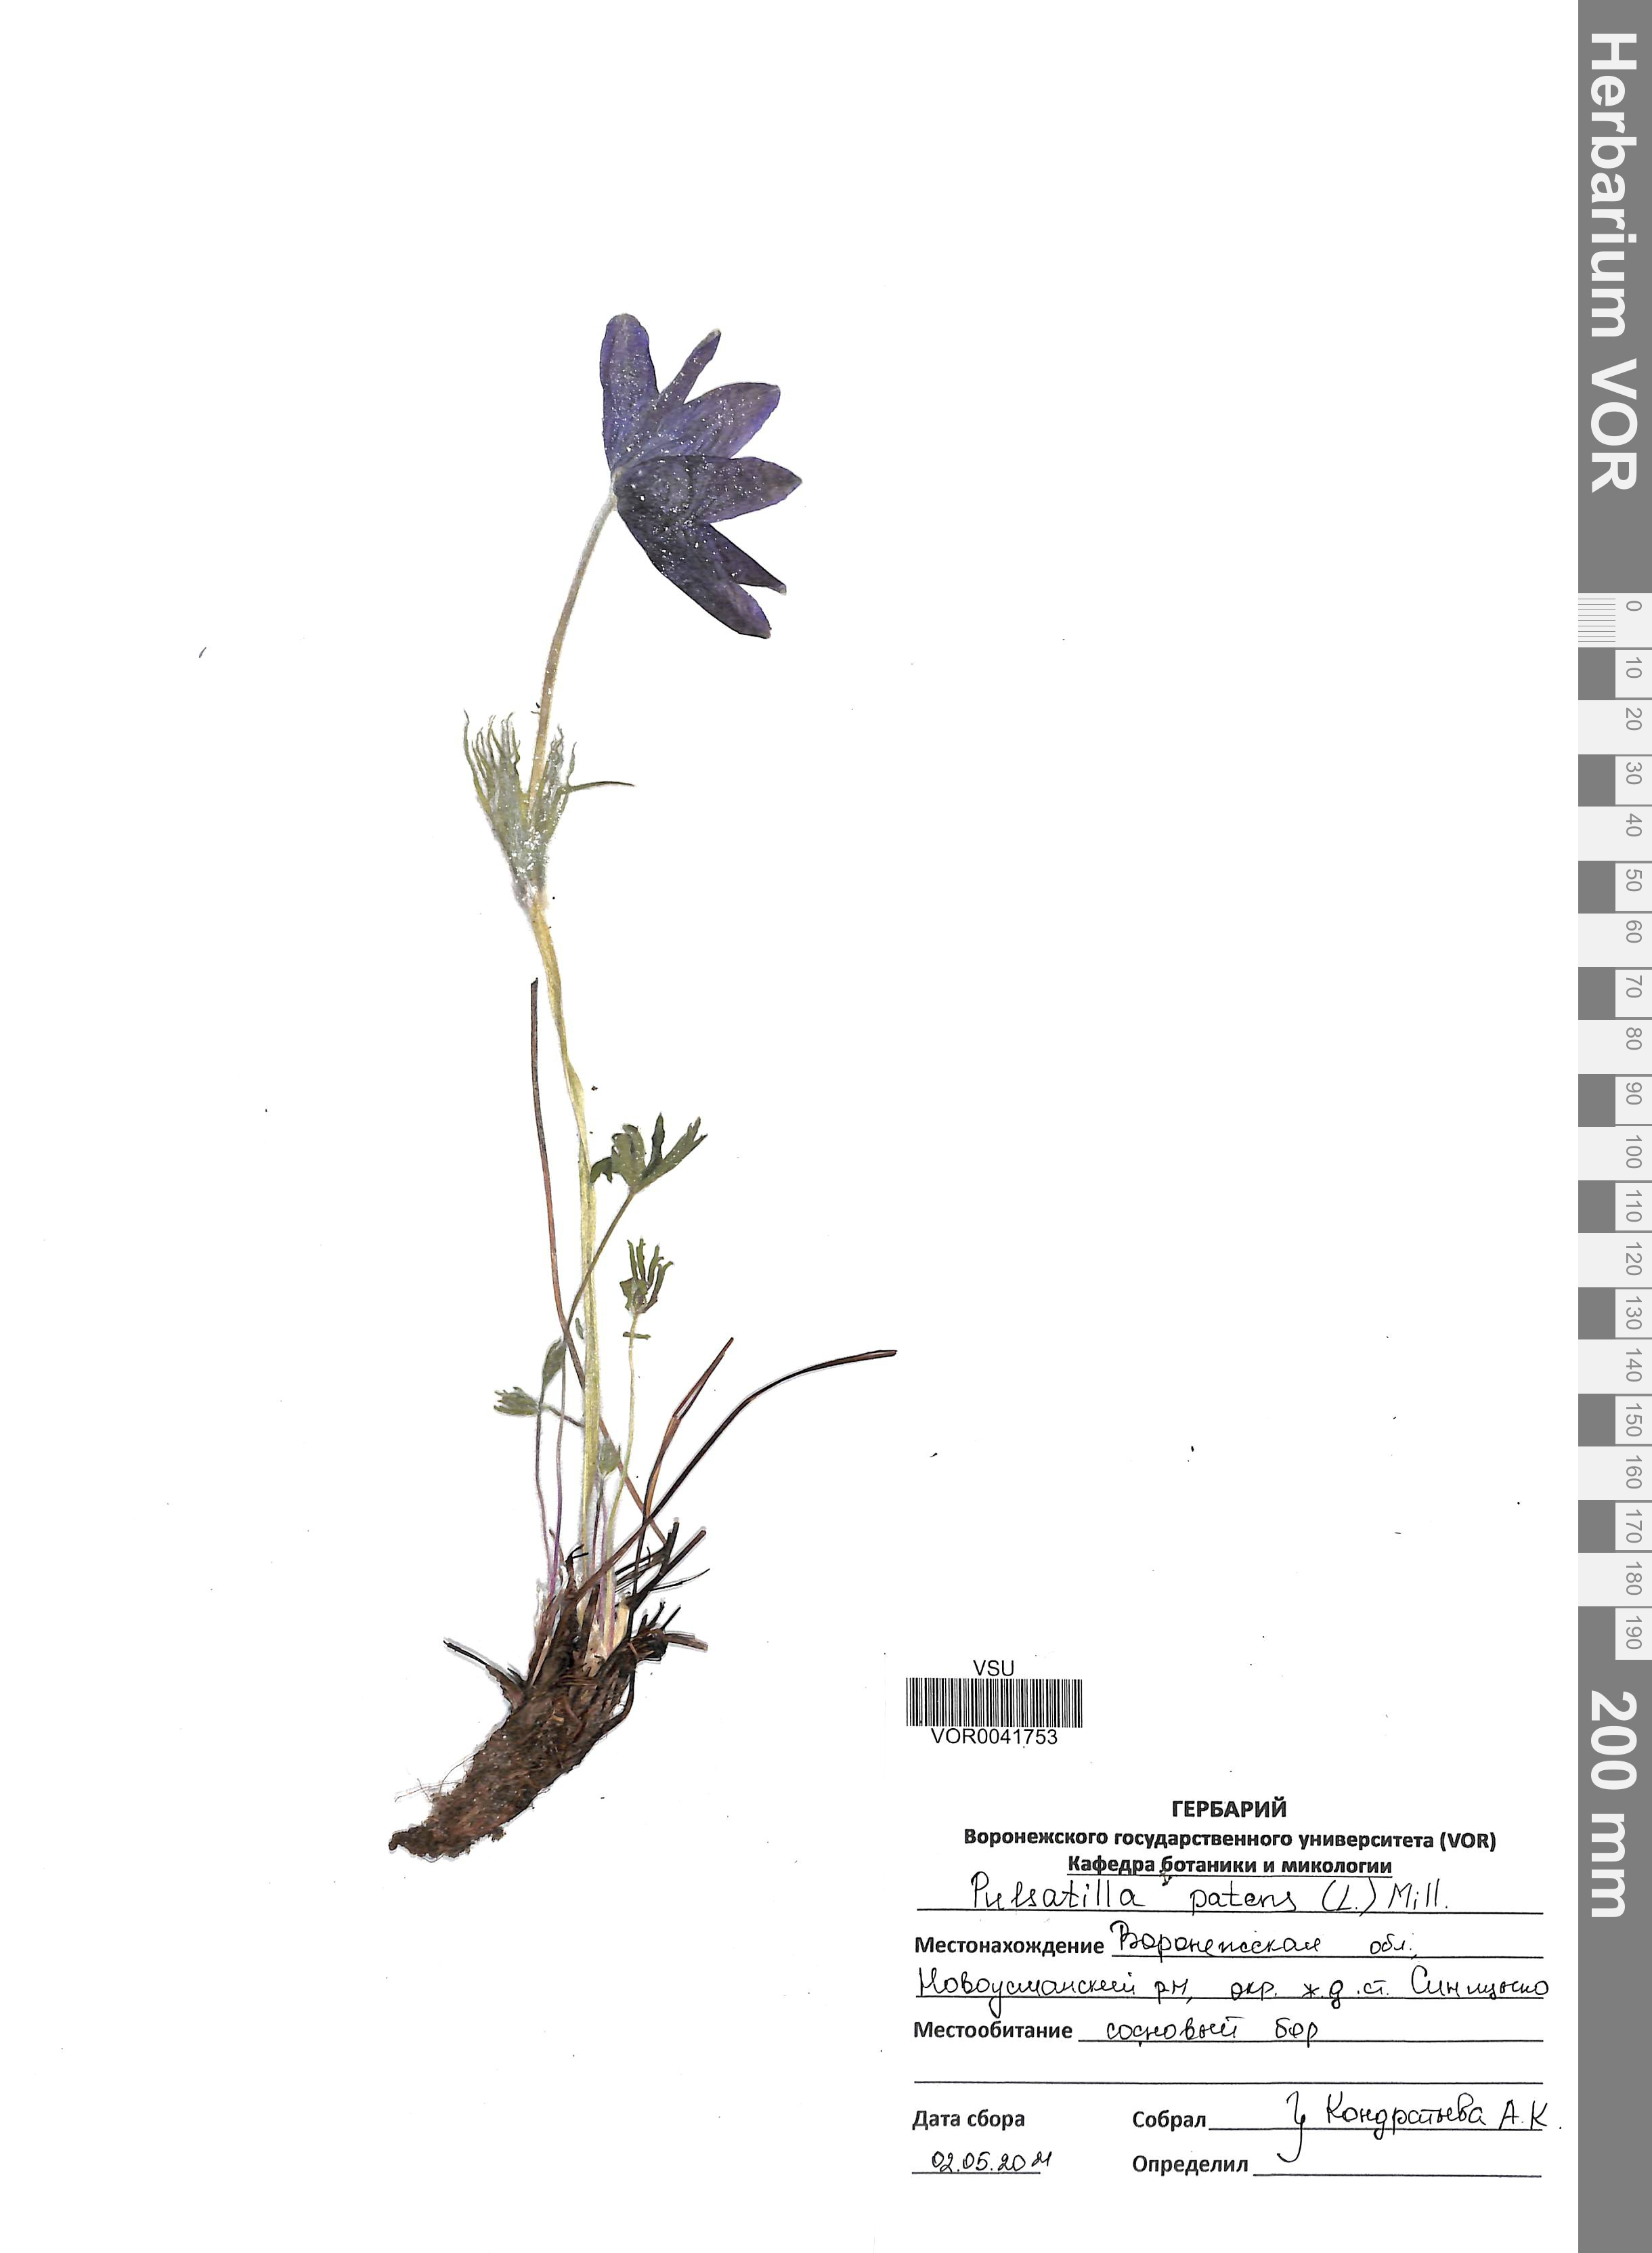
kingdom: Plantae
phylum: Tracheophyta
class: Magnoliopsida
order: Ranunculales
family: Ranunculaceae
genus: Pulsatilla
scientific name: Pulsatilla patens
